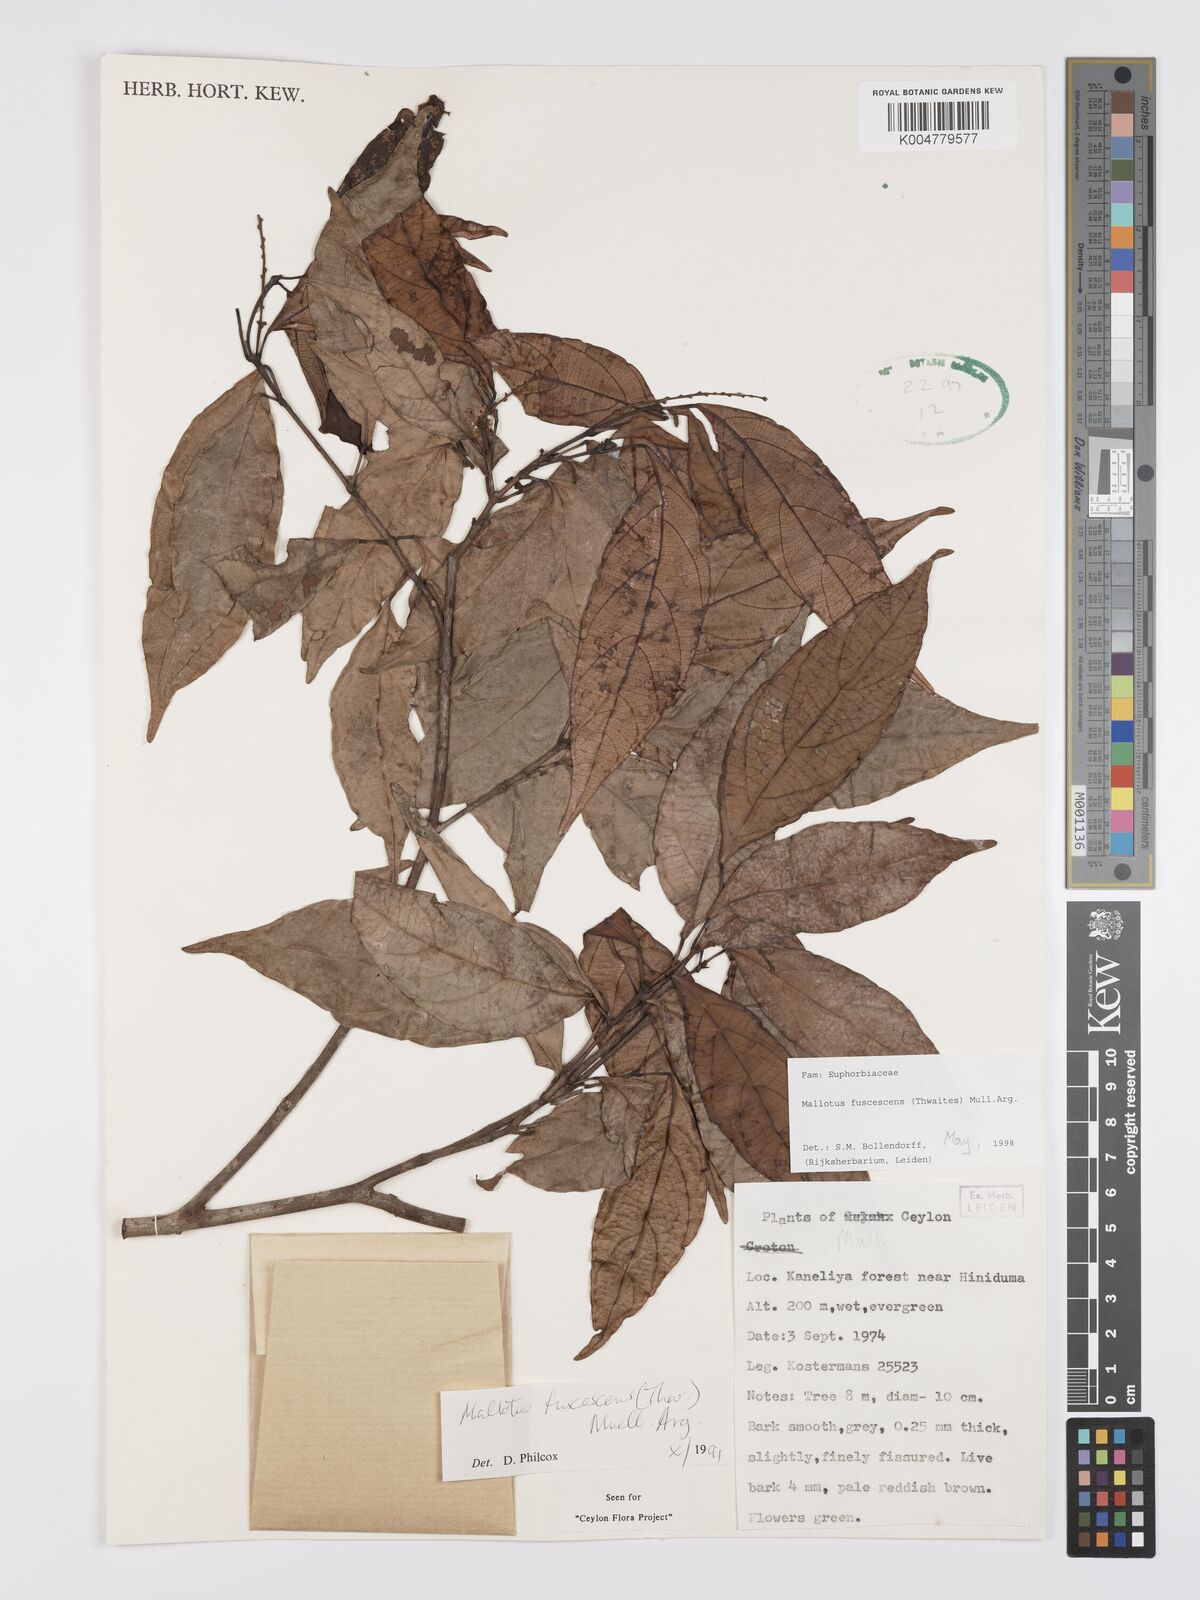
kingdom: Plantae
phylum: Tracheophyta
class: Magnoliopsida
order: Malpighiales
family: Euphorbiaceae
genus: Mallotus
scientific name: Mallotus fuscescens
